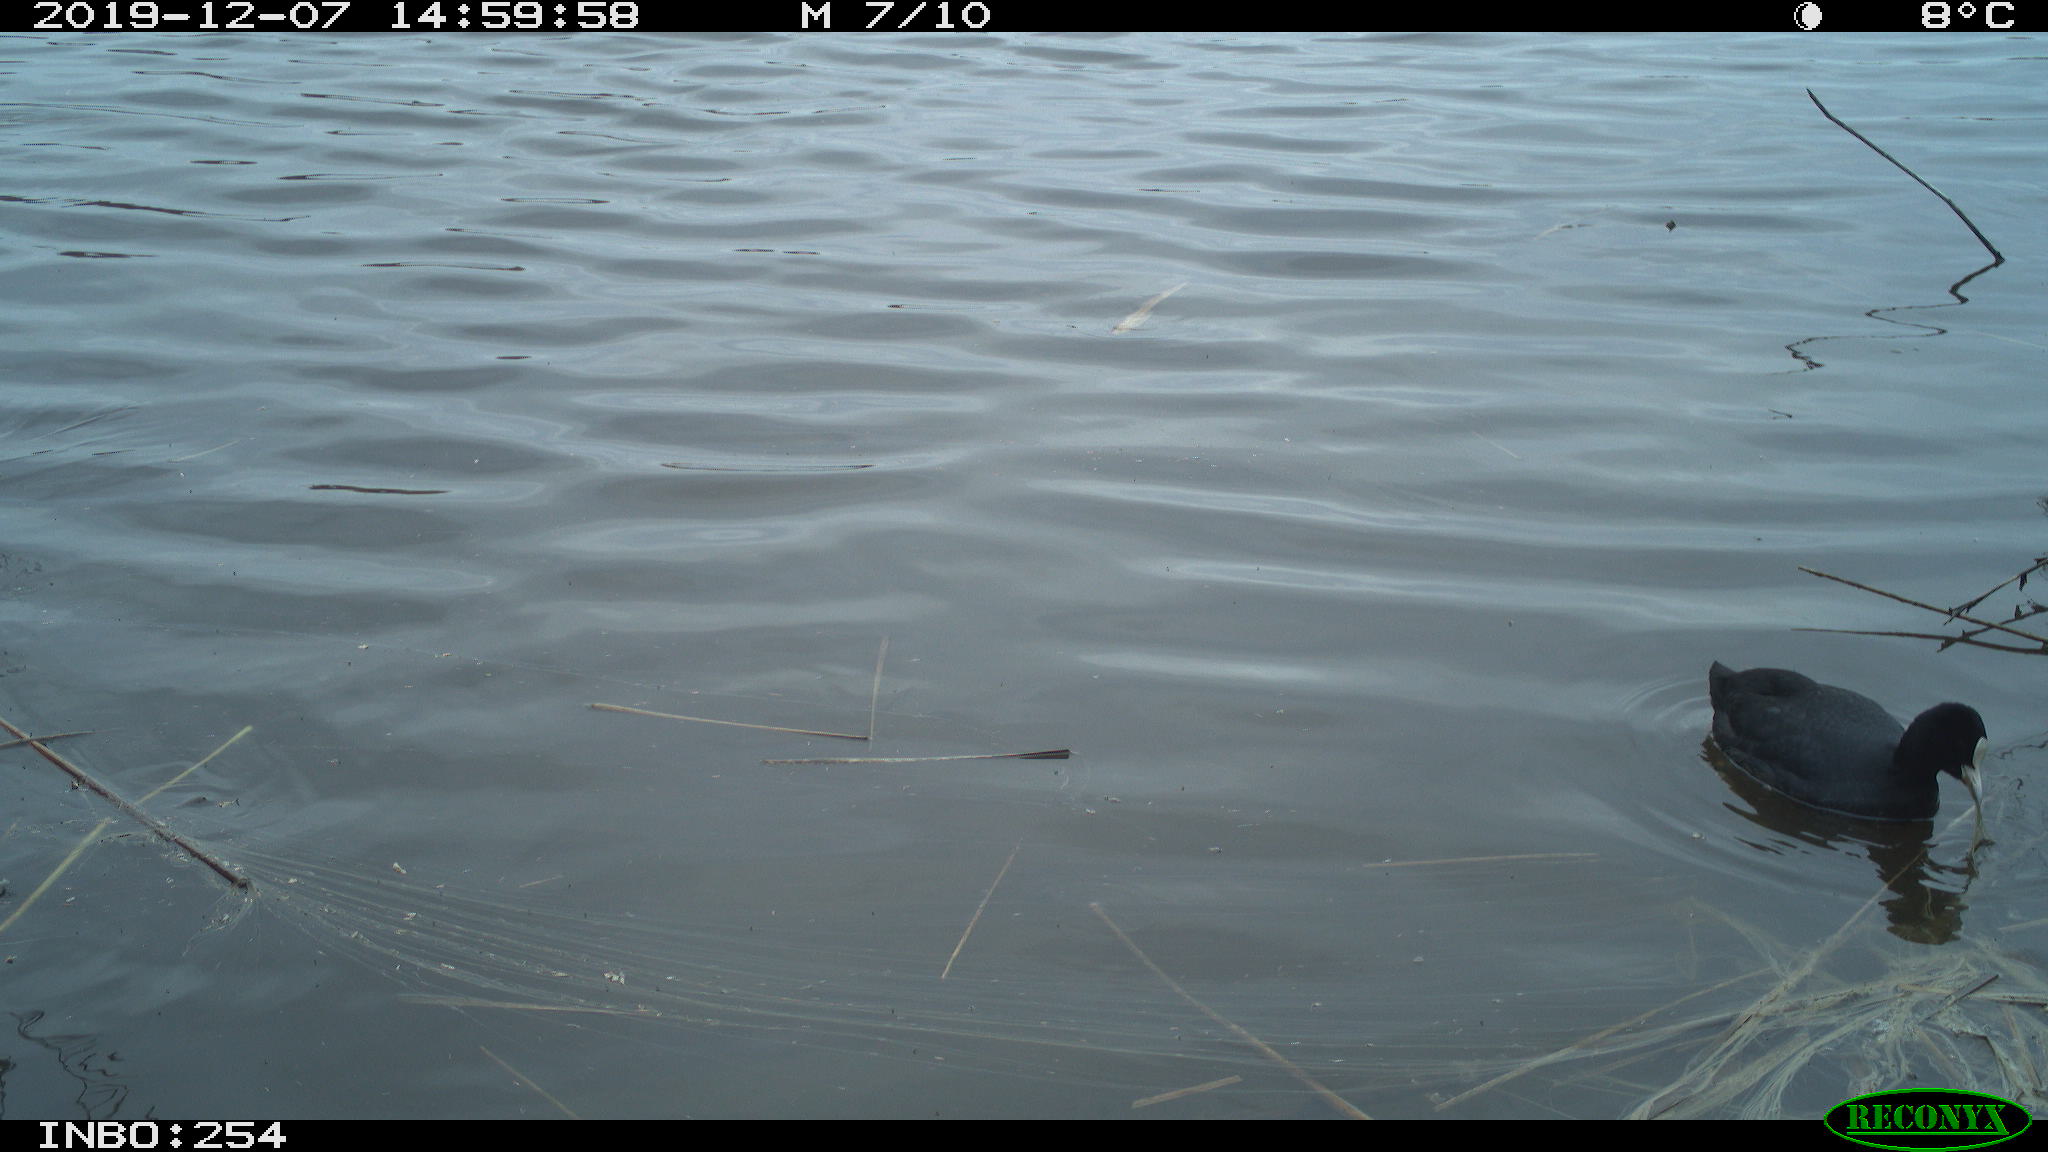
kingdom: Animalia
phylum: Chordata
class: Aves
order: Gruiformes
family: Rallidae
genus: Fulica
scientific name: Fulica atra
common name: Eurasian coot
